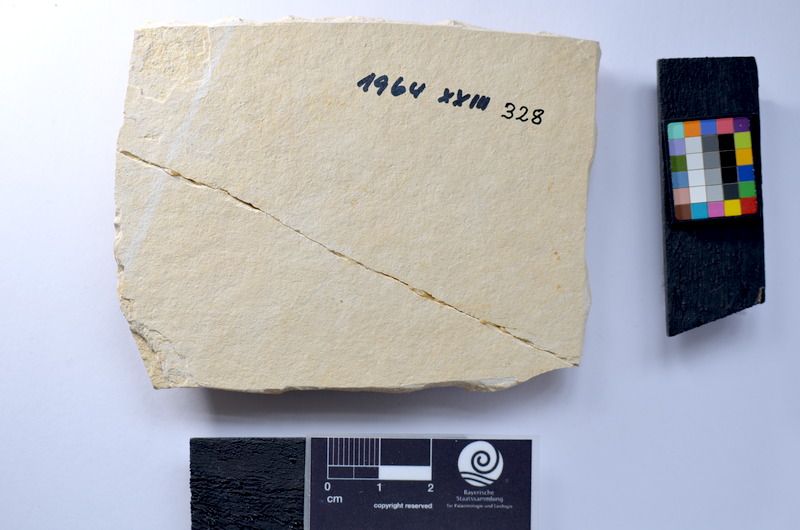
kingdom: Animalia
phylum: Chordata
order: Salmoniformes
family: Orthogonikleithridae
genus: Leptolepides
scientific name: Leptolepides
